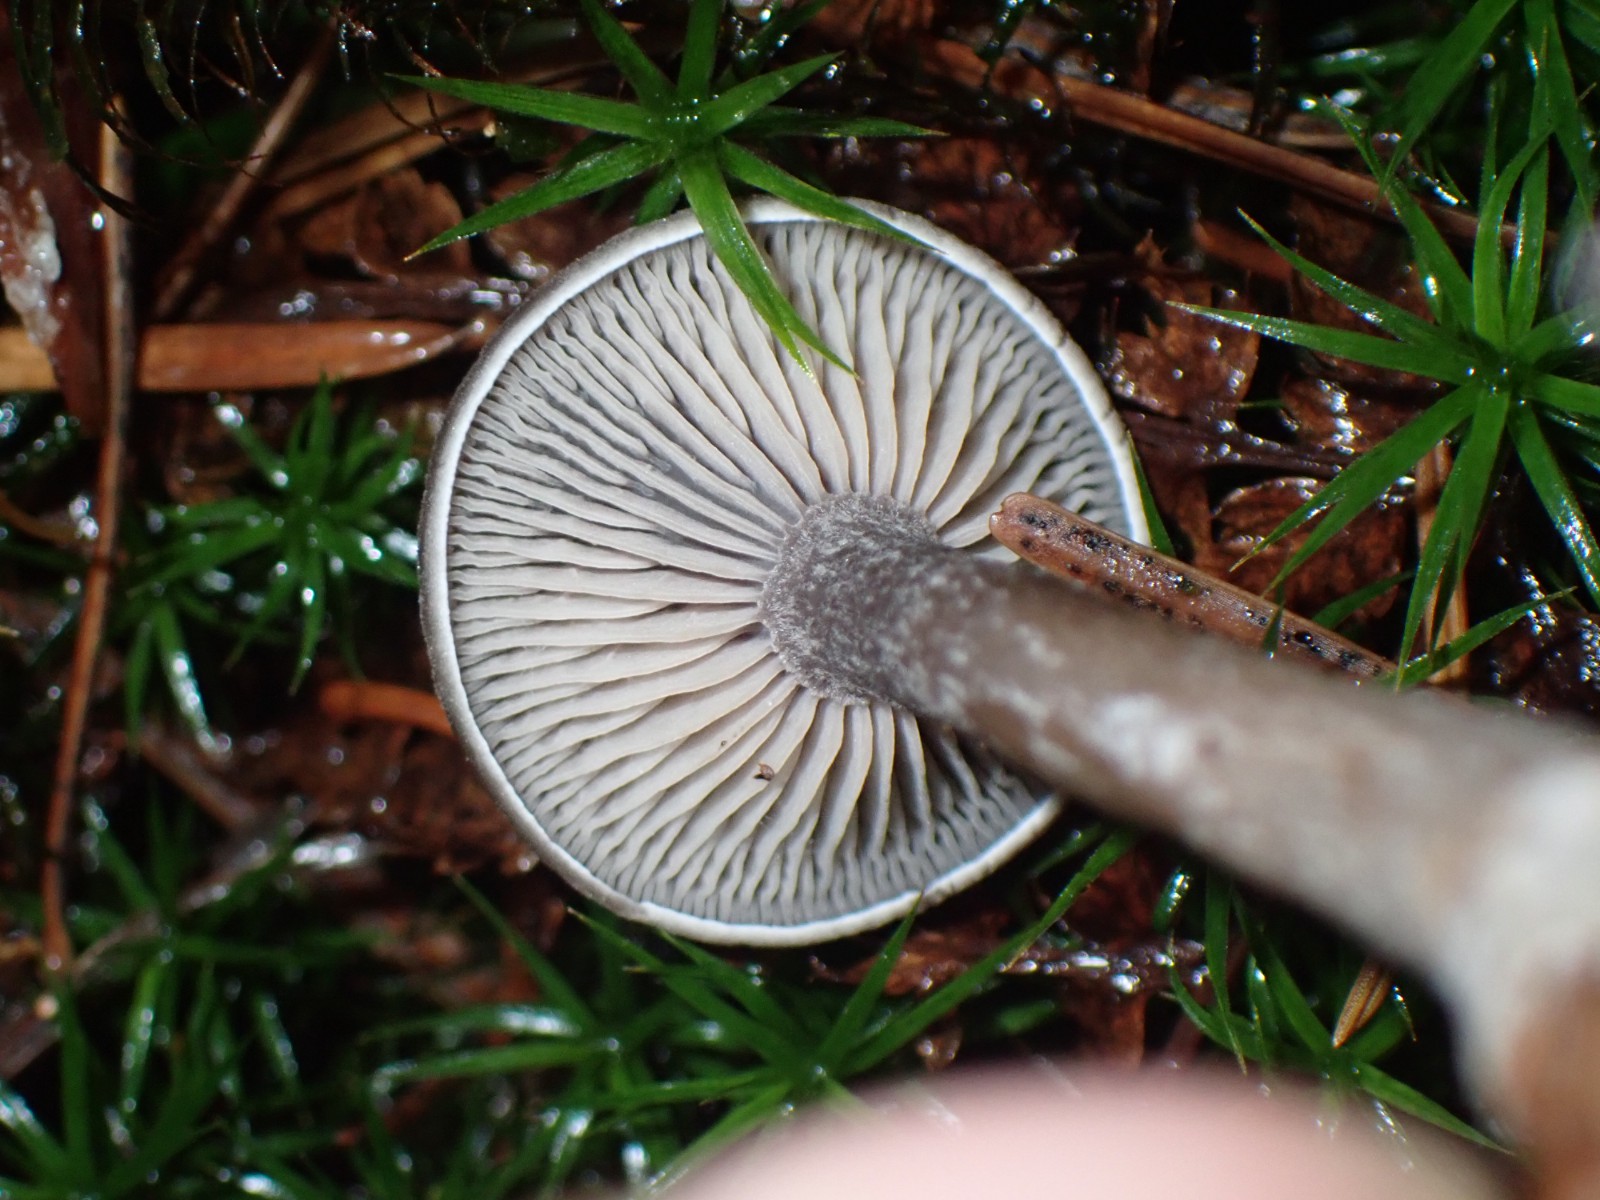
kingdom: Fungi
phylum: Basidiomycota
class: Agaricomycetes
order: Agaricales
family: Pseudoclitocybaceae
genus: Pseudoclitocybe
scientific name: Pseudoclitocybe cyathiformis
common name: almindelig bægertragthat
